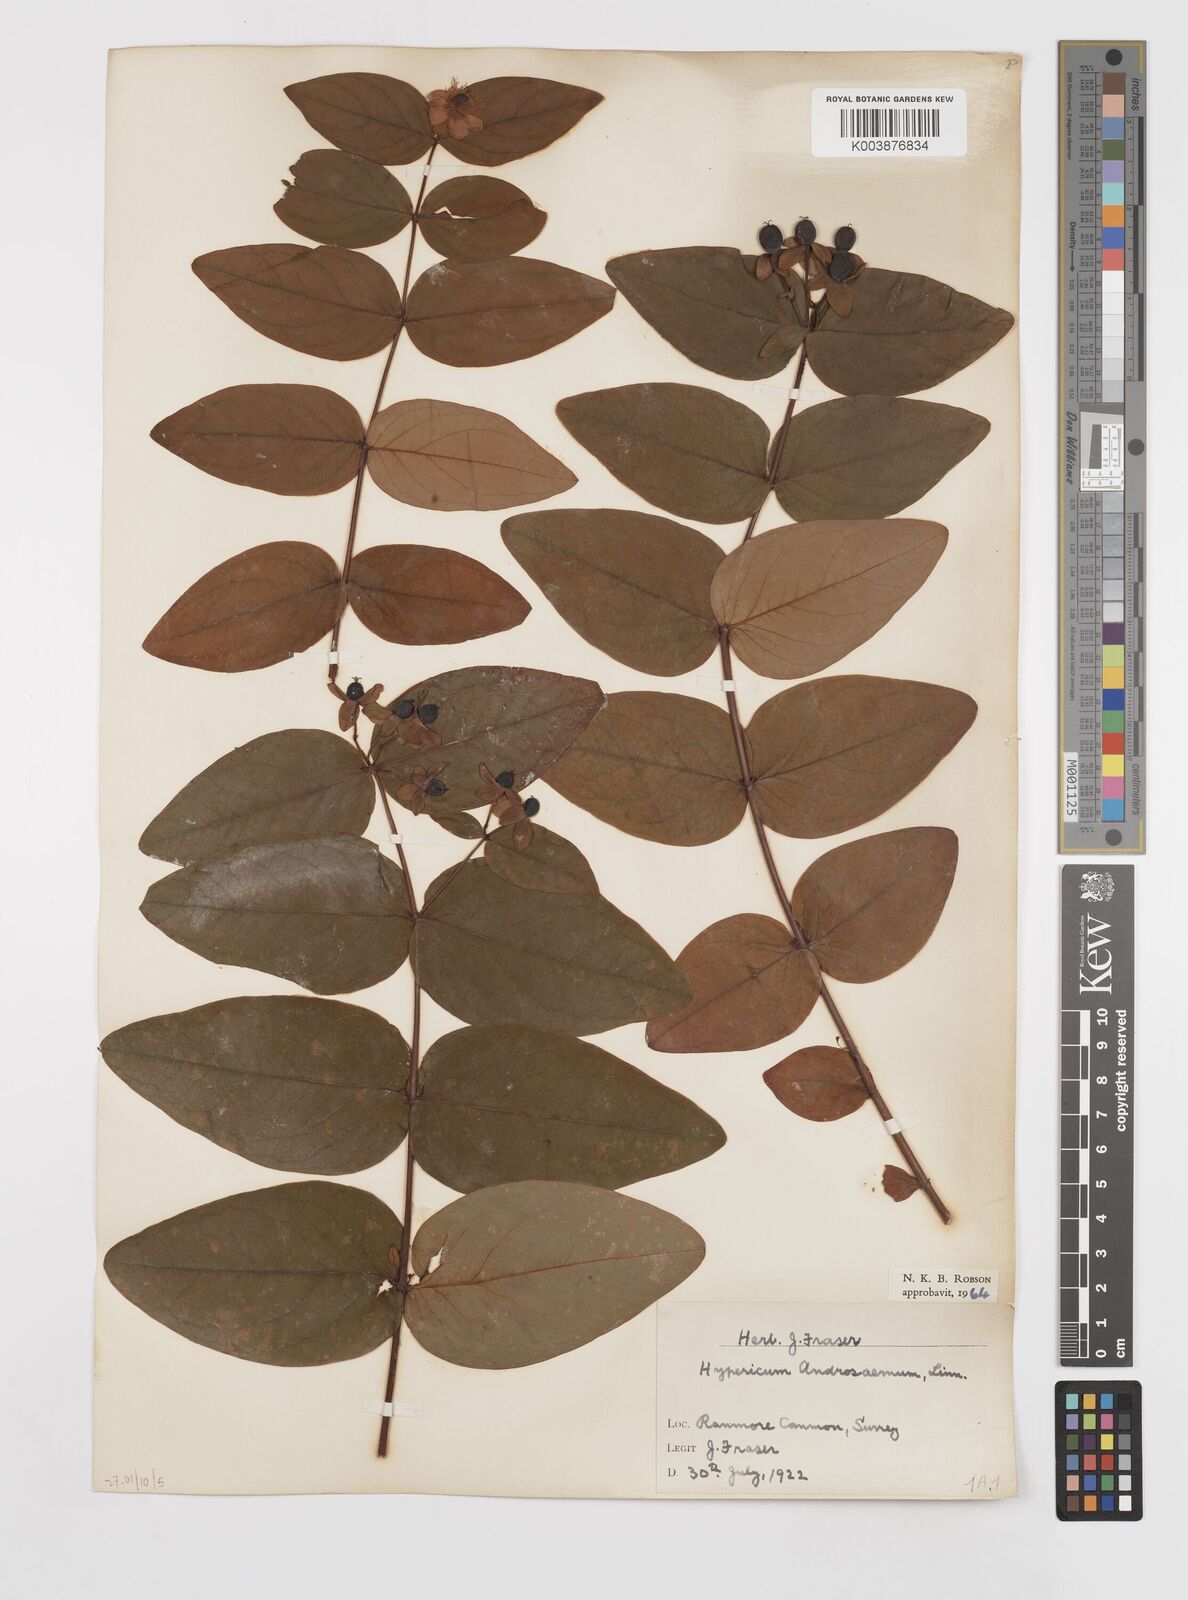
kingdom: Plantae
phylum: Tracheophyta
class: Magnoliopsida
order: Malpighiales
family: Hypericaceae
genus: Hypericum
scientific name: Hypericum androsaemum
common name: Sweet-amber
